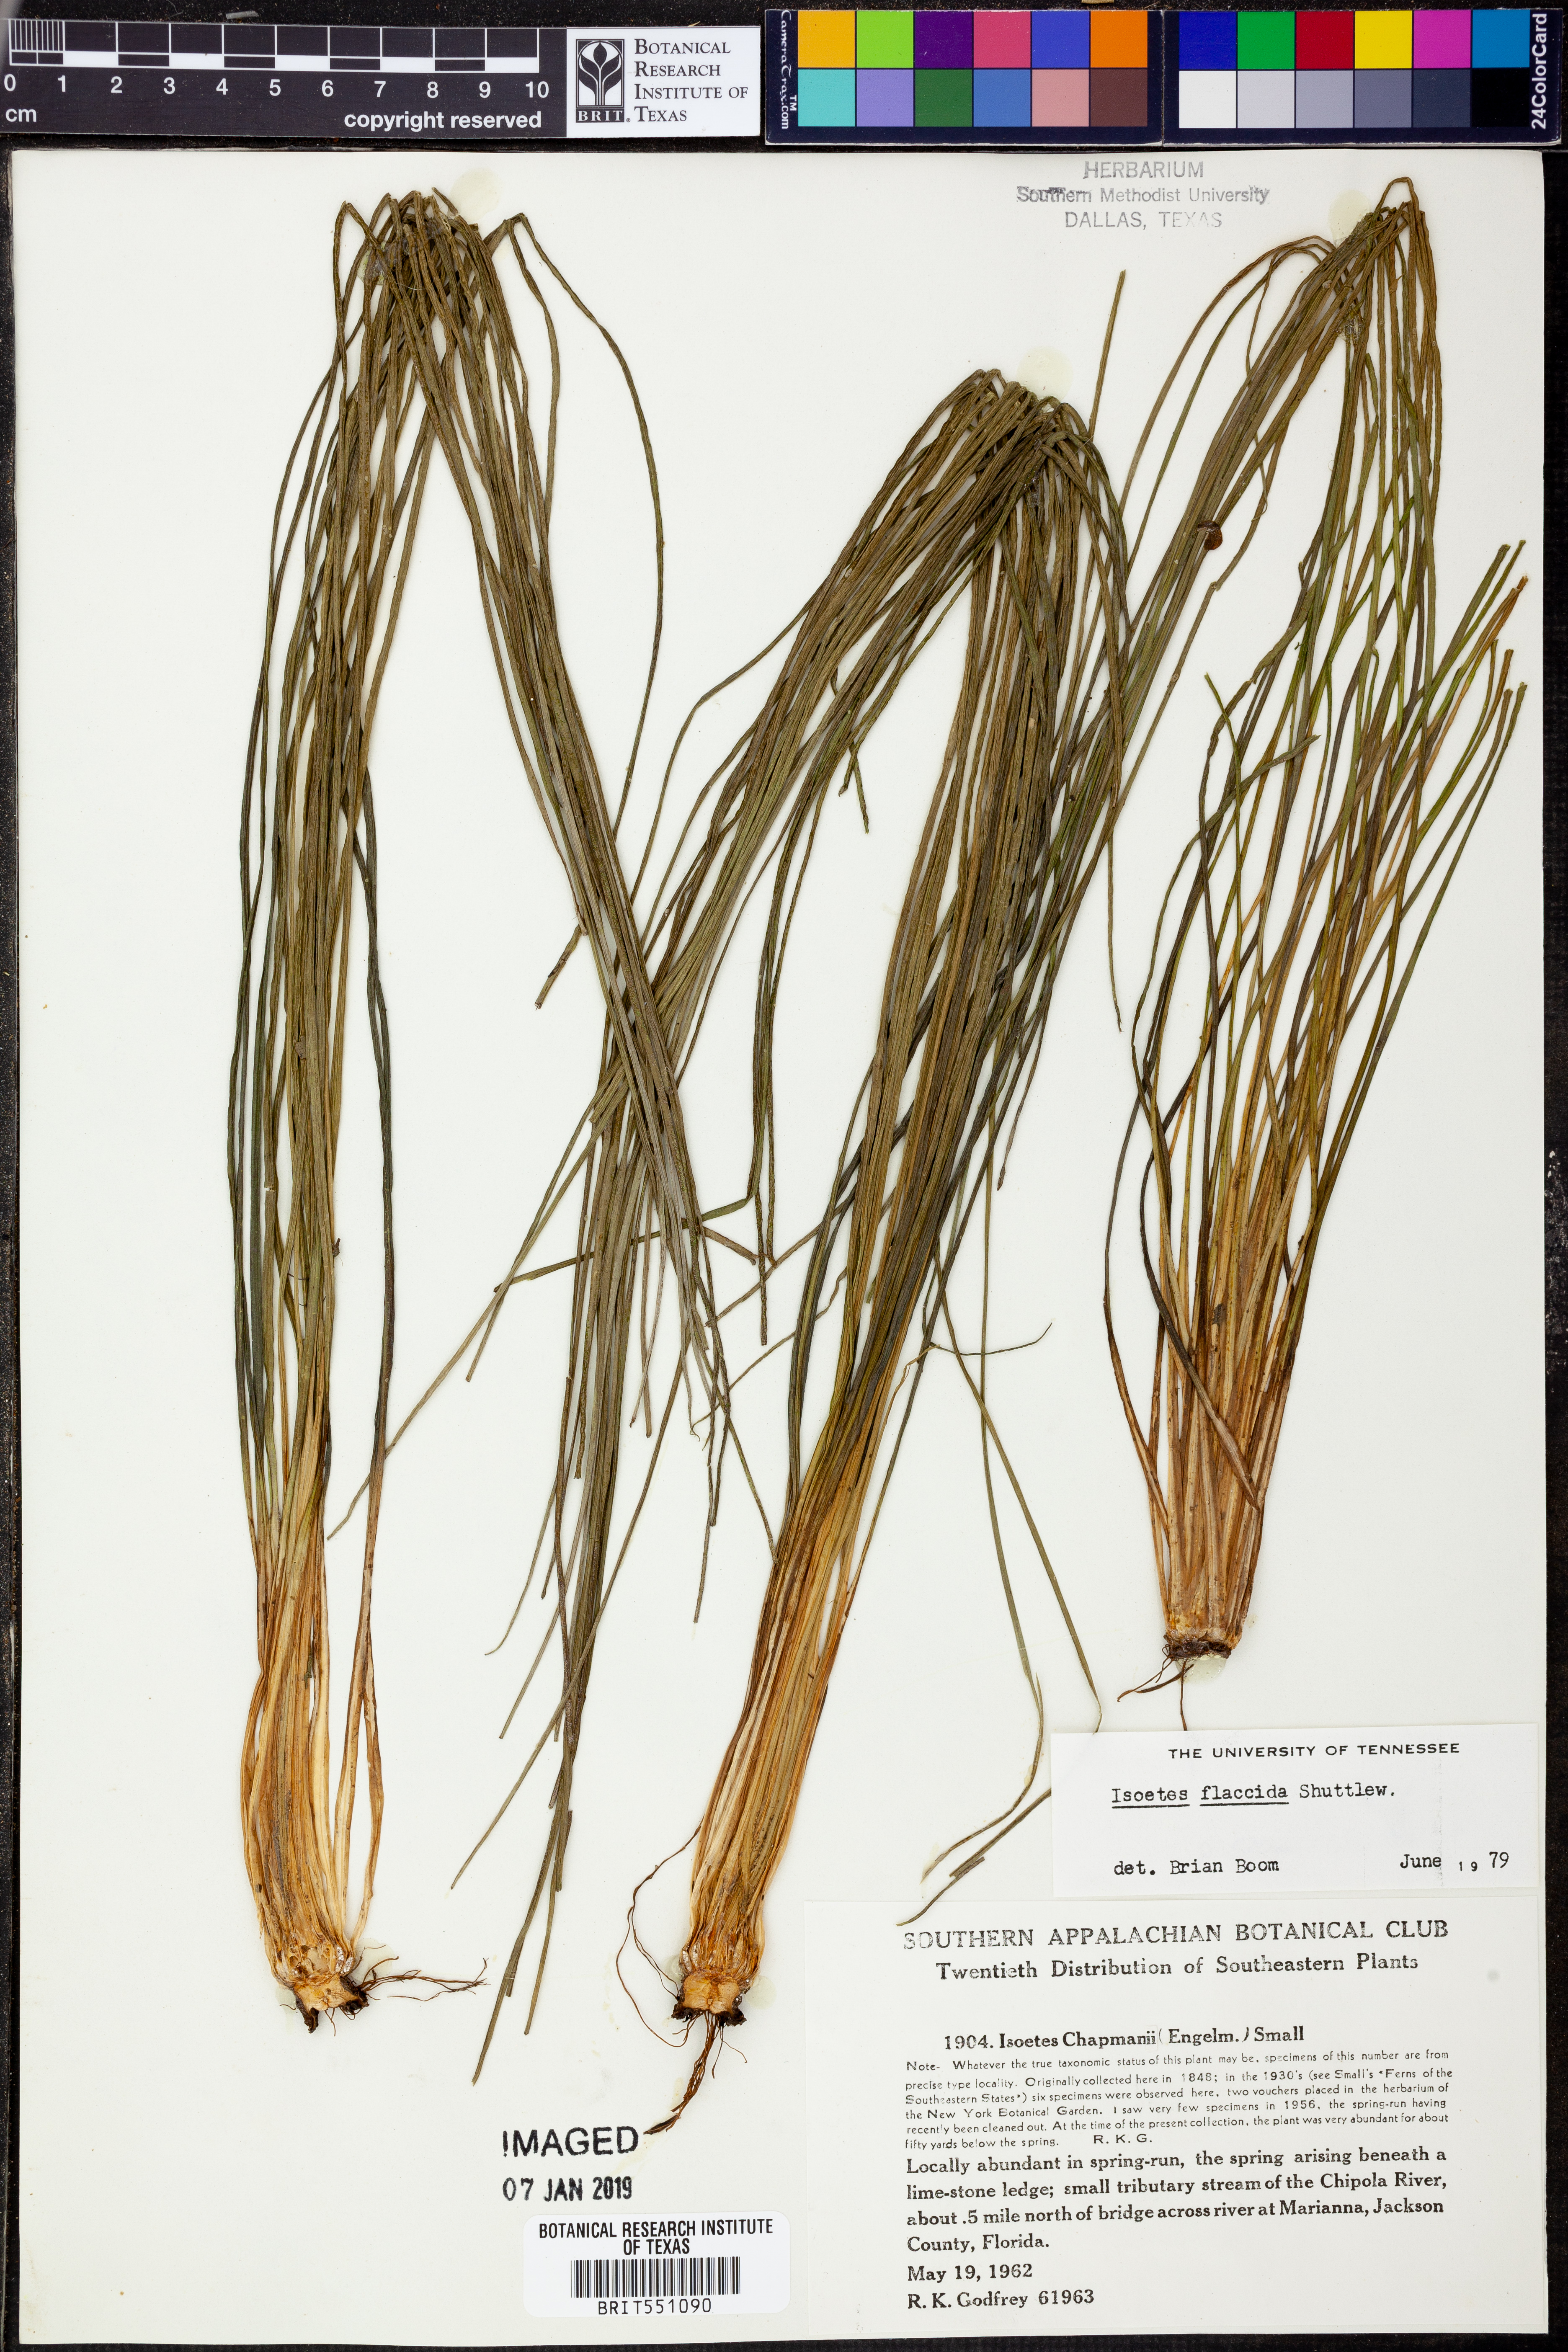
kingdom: Plantae
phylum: Tracheophyta
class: Lycopodiopsida
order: Isoetales
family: Isoetaceae
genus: Isoetes
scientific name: Isoetes flaccida
